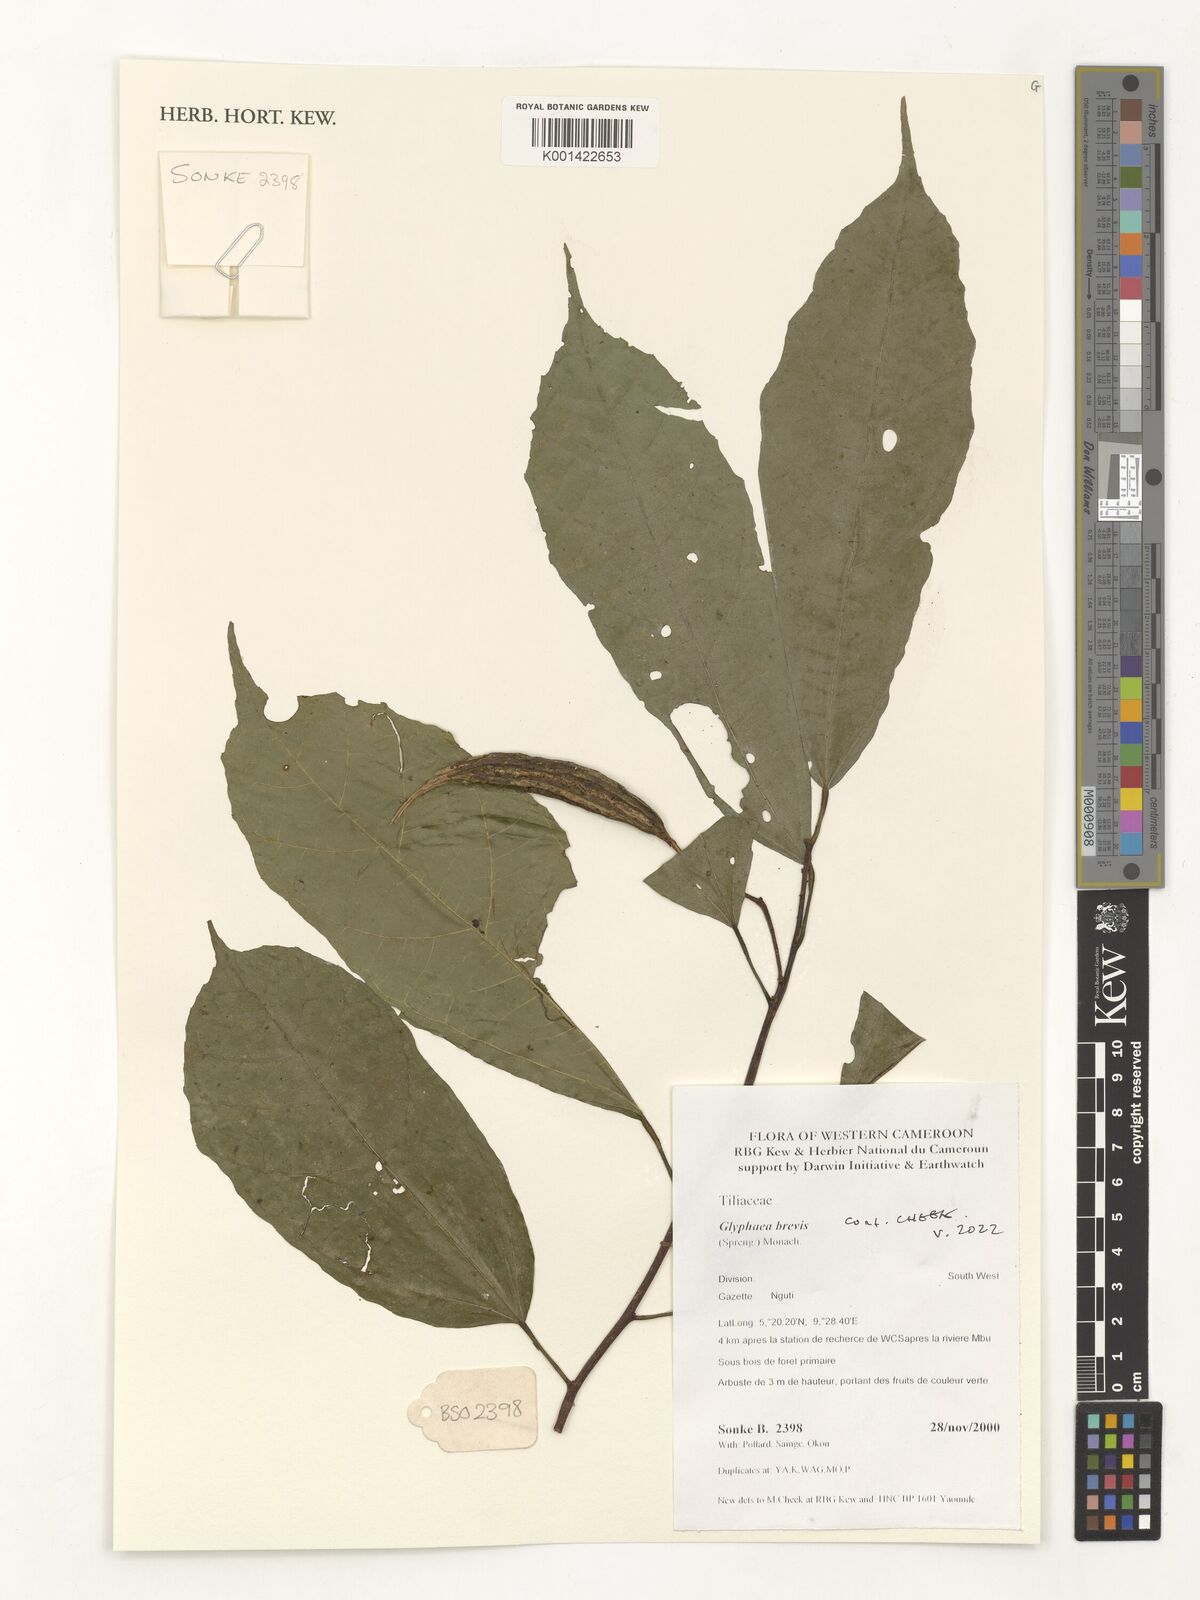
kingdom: Plantae
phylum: Tracheophyta
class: Magnoliopsida
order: Malvales
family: Malvaceae
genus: Glyphaea
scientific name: Glyphaea brevis
